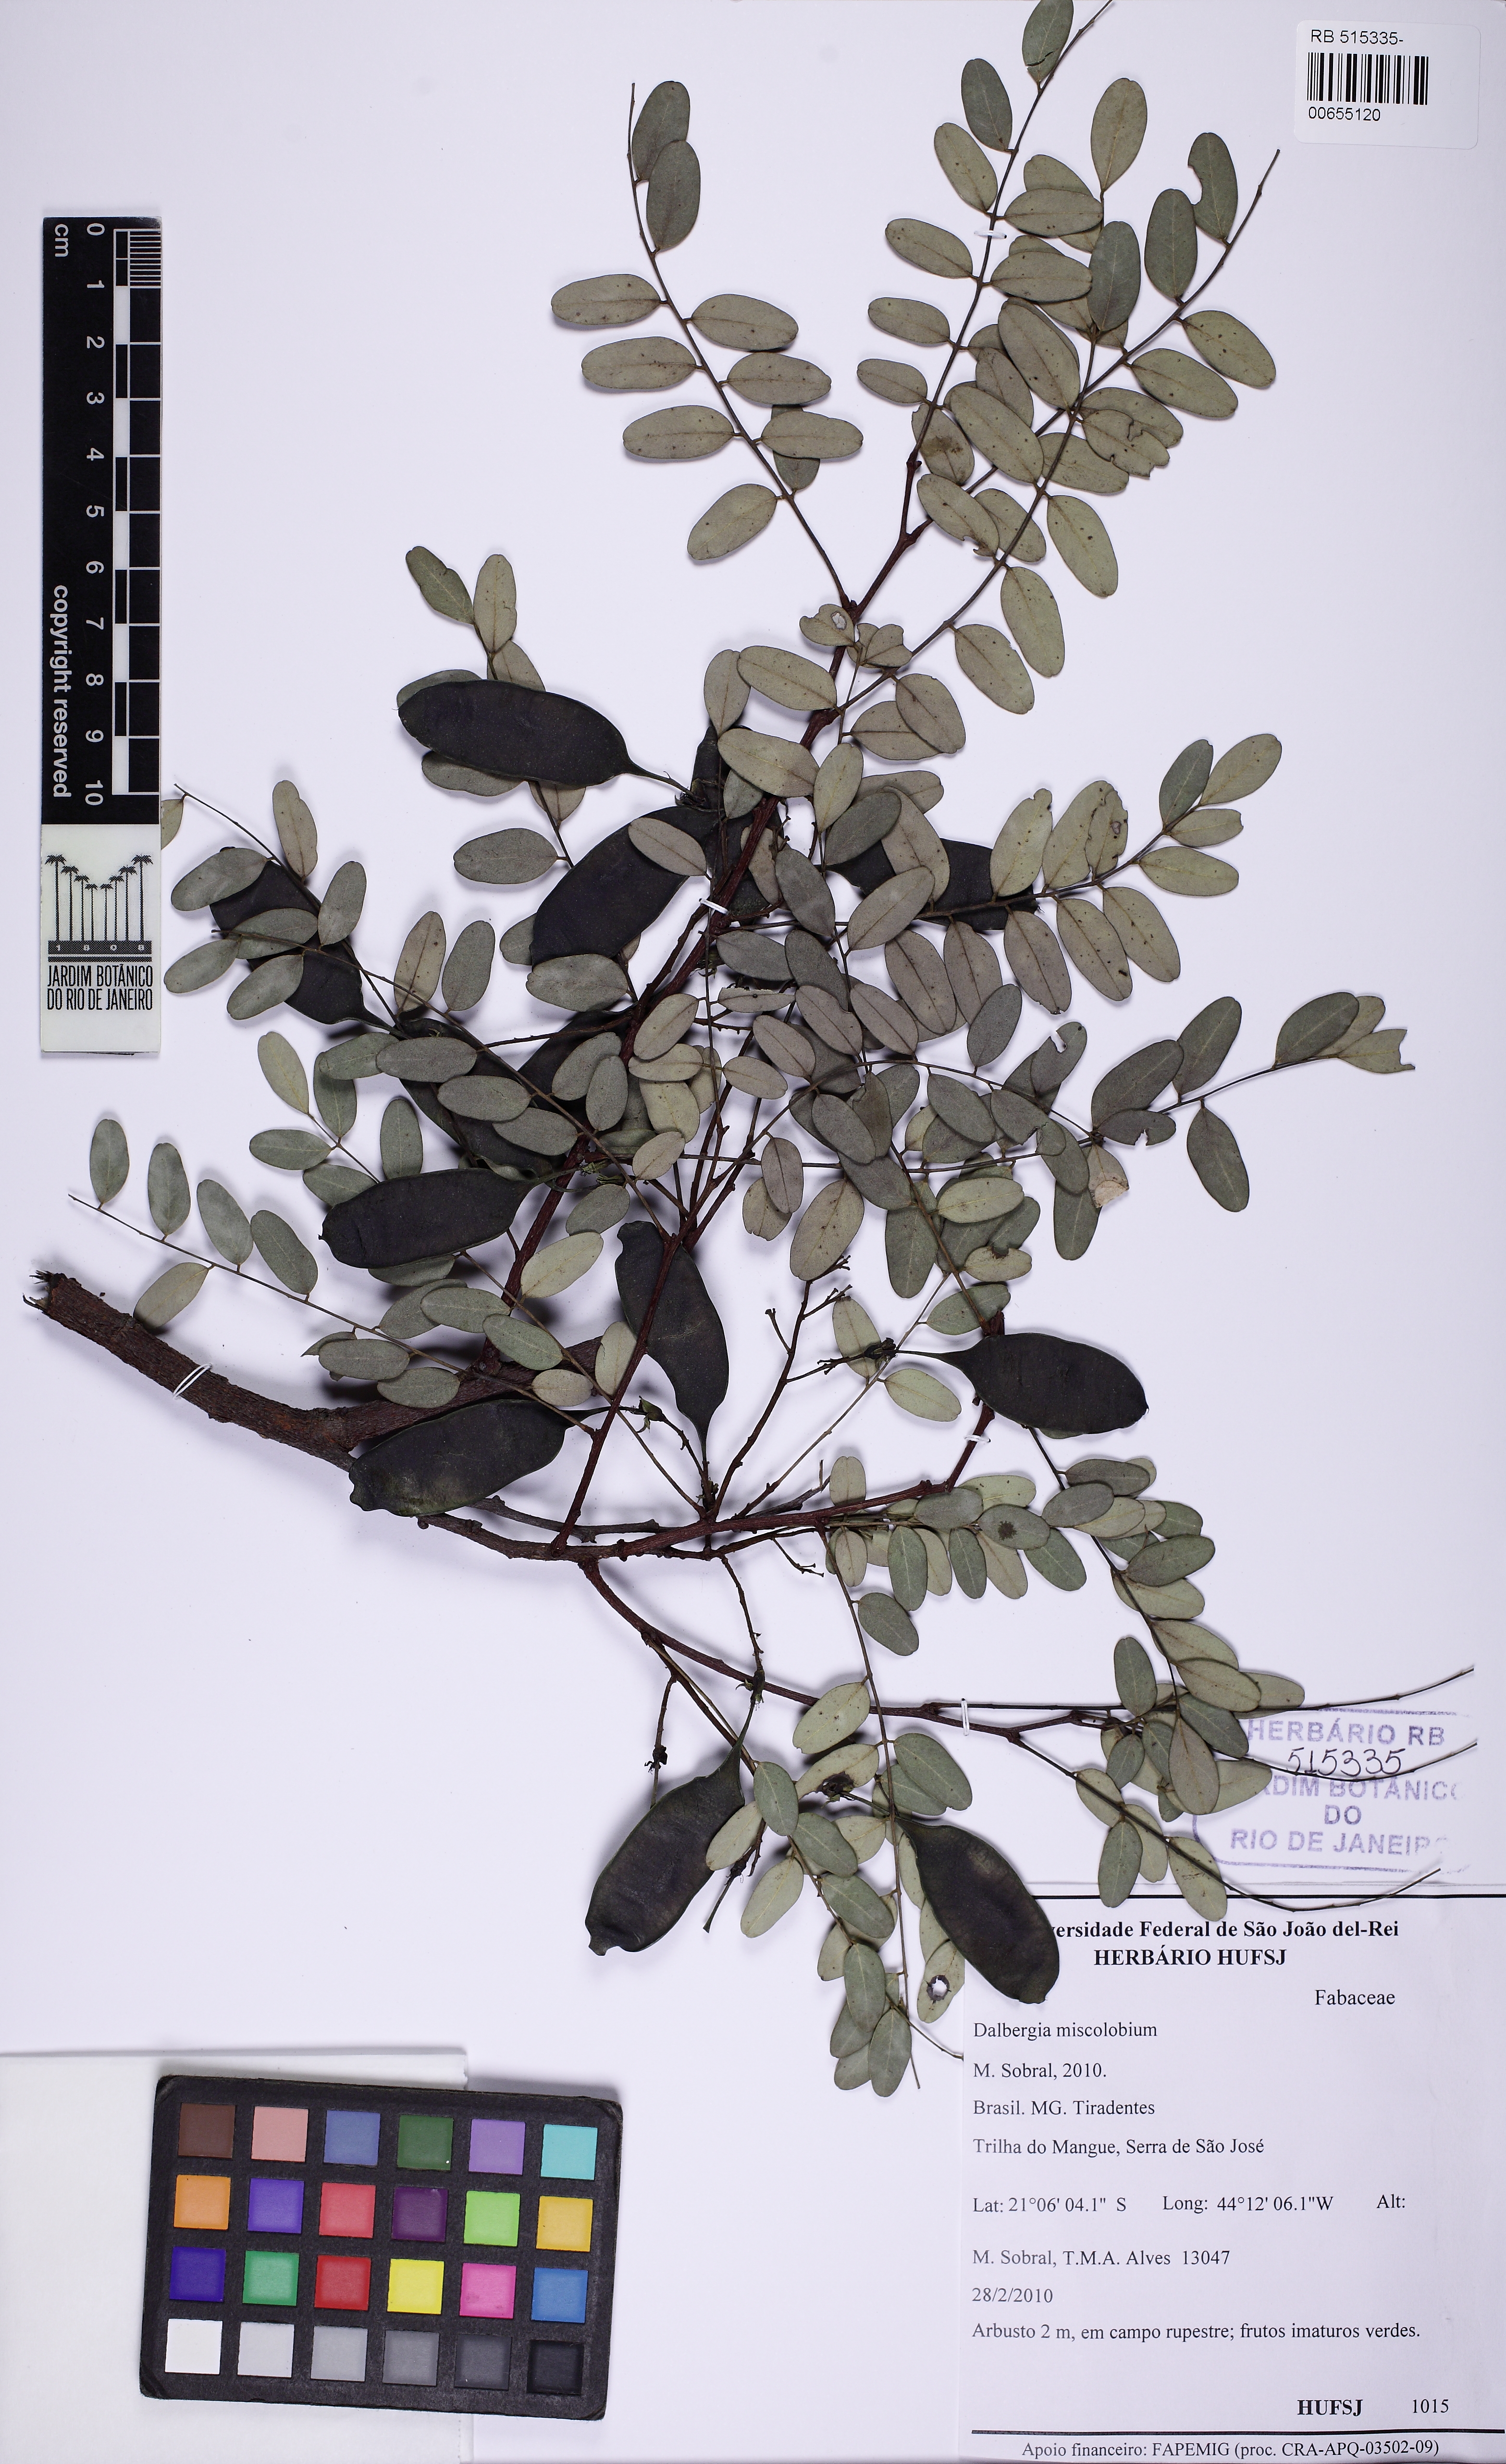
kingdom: Plantae
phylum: Tracheophyta
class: Magnoliopsida
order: Fabales
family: Fabaceae
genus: Dalbergia
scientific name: Dalbergia miscolobium
